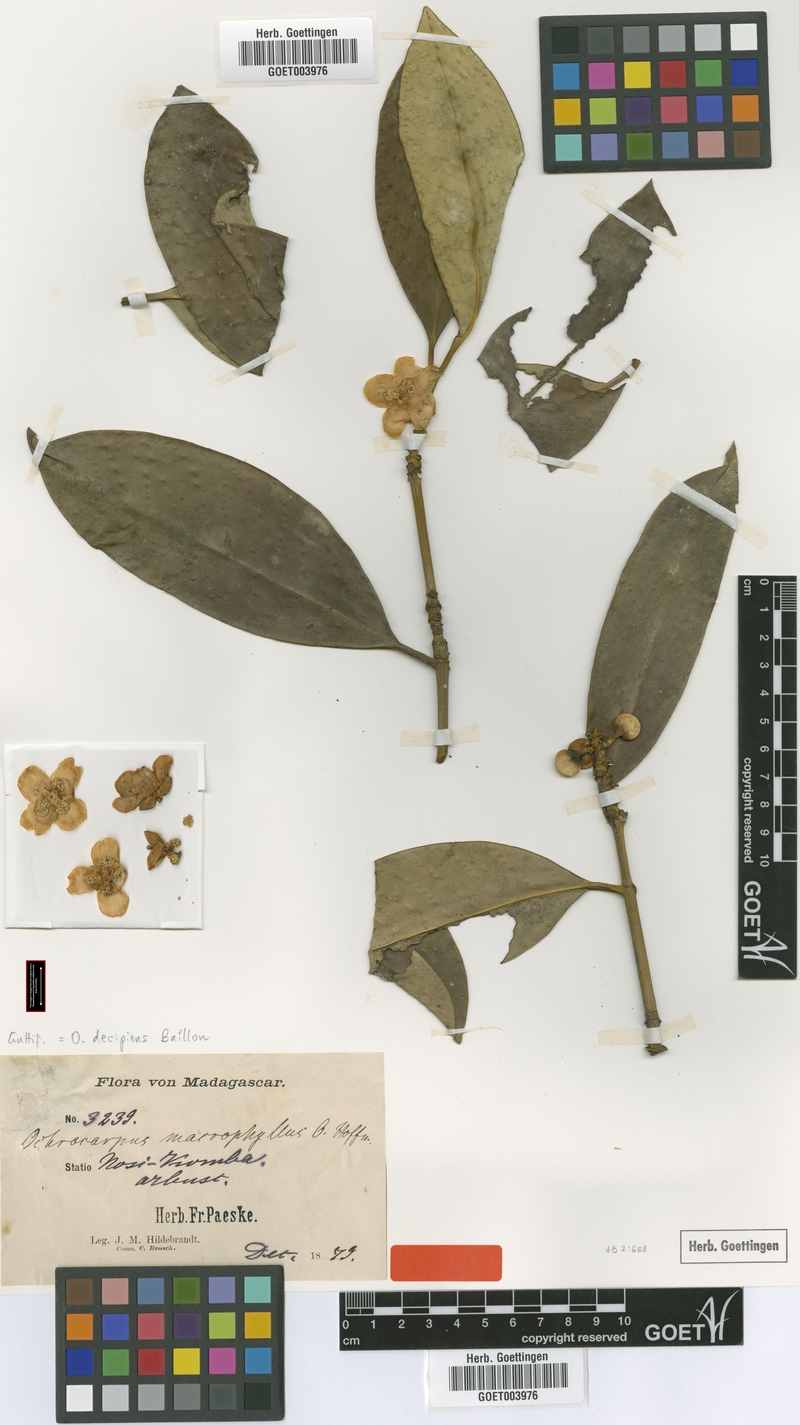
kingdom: Plantae
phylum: Tracheophyta
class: Magnoliopsida
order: Malpighiales
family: Clusiaceae
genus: Garcinia
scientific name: Garcinia decipiens
